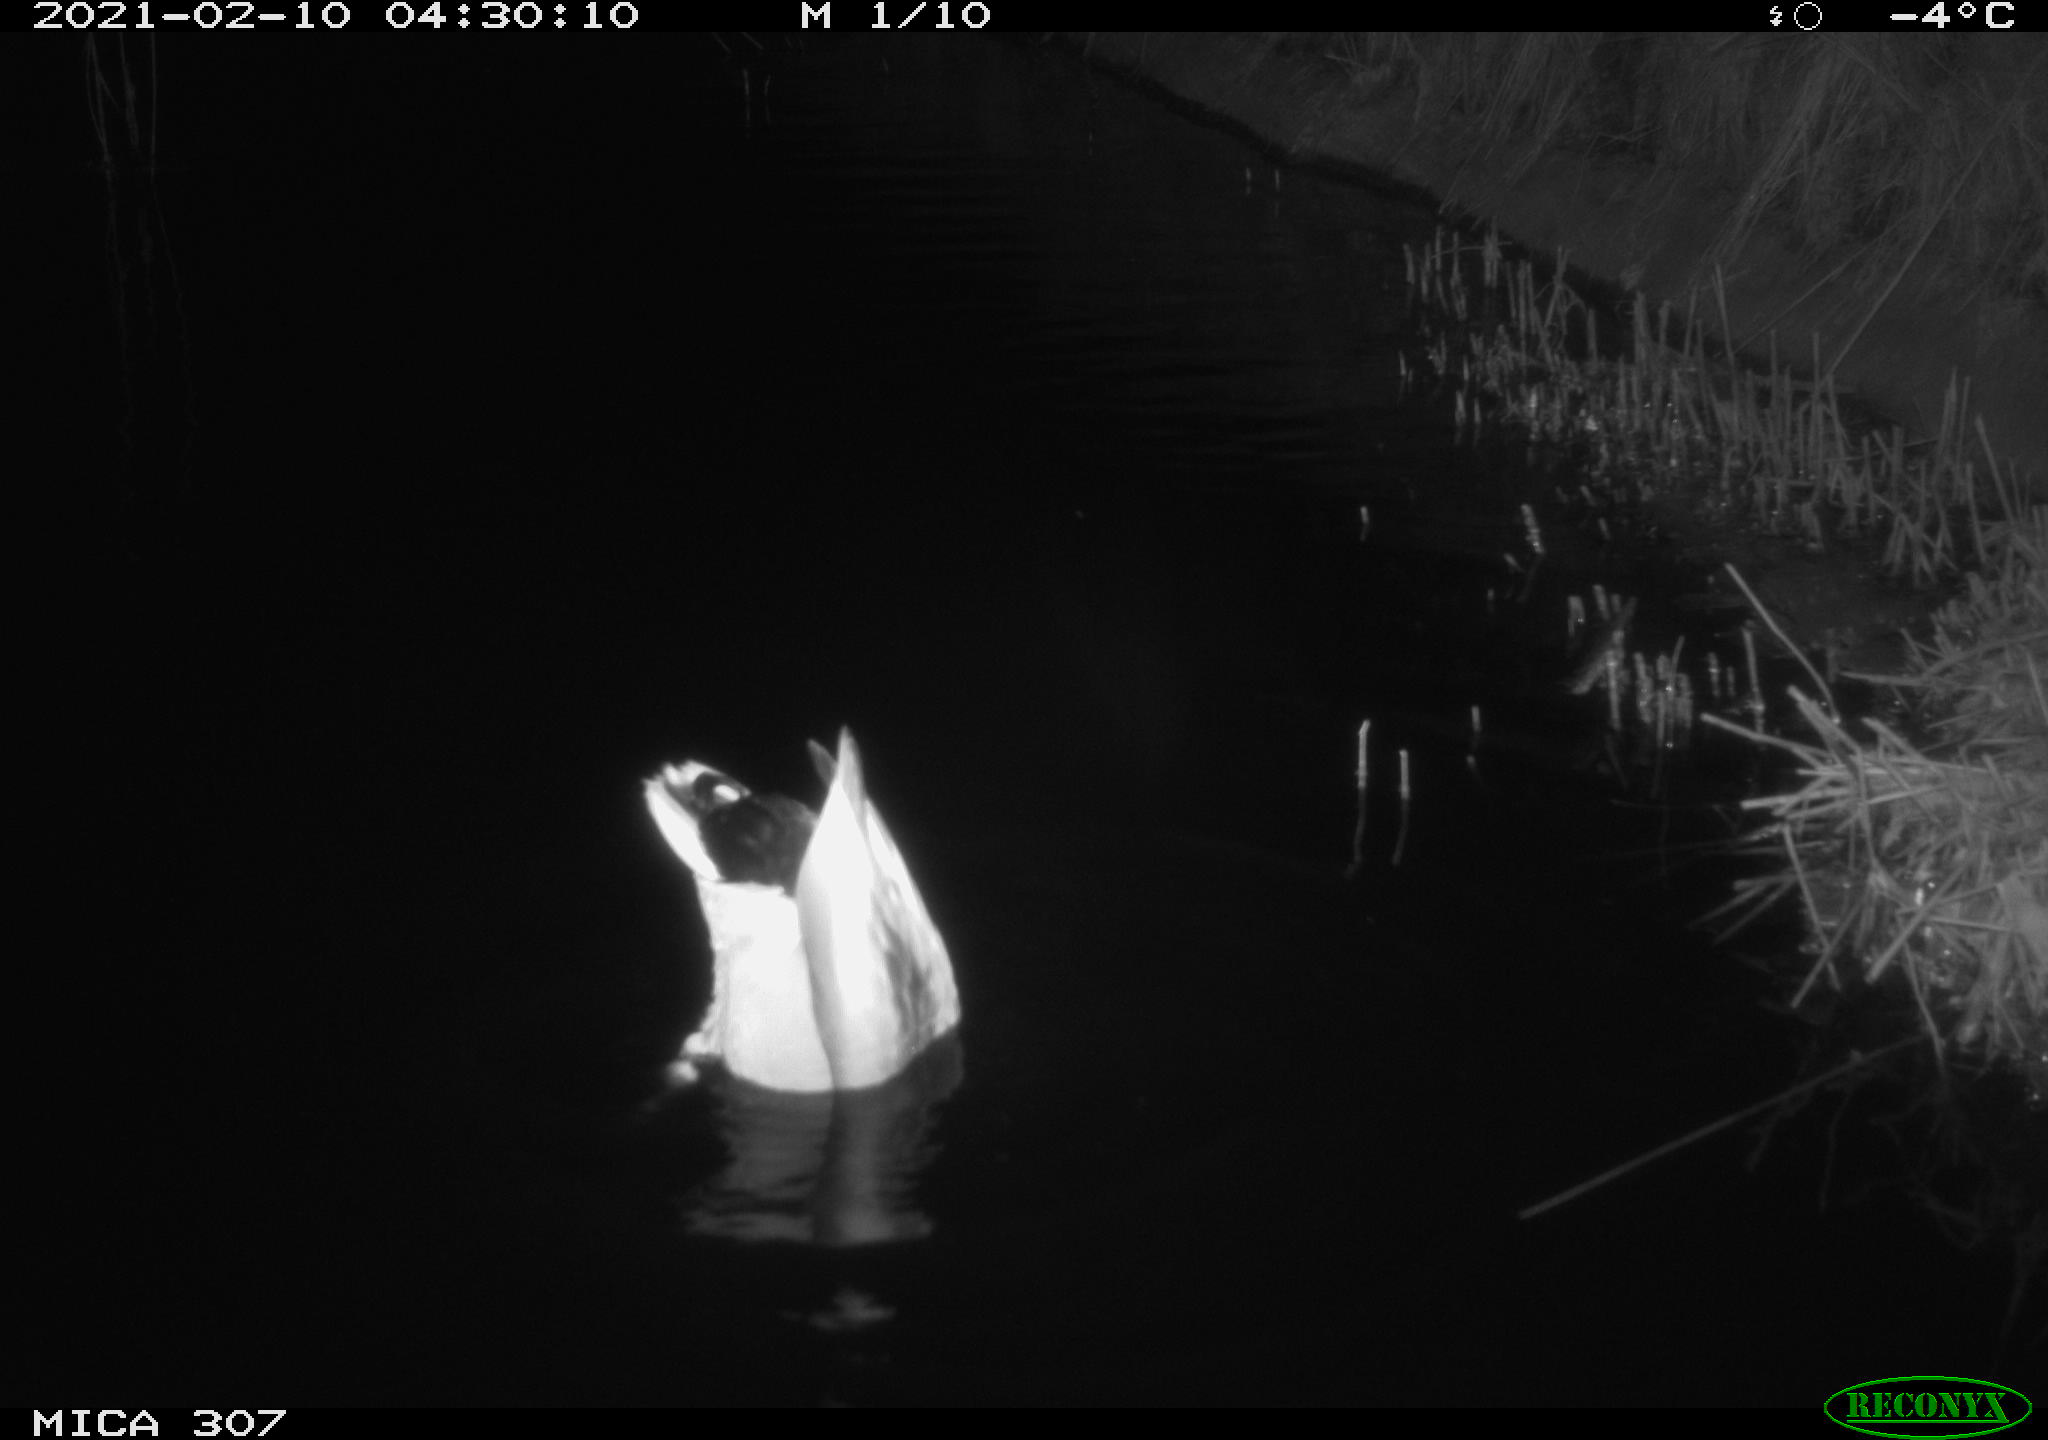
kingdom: Animalia
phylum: Chordata
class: Aves
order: Anseriformes
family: Anatidae
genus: Anas
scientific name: Anas platyrhynchos
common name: Mallard
